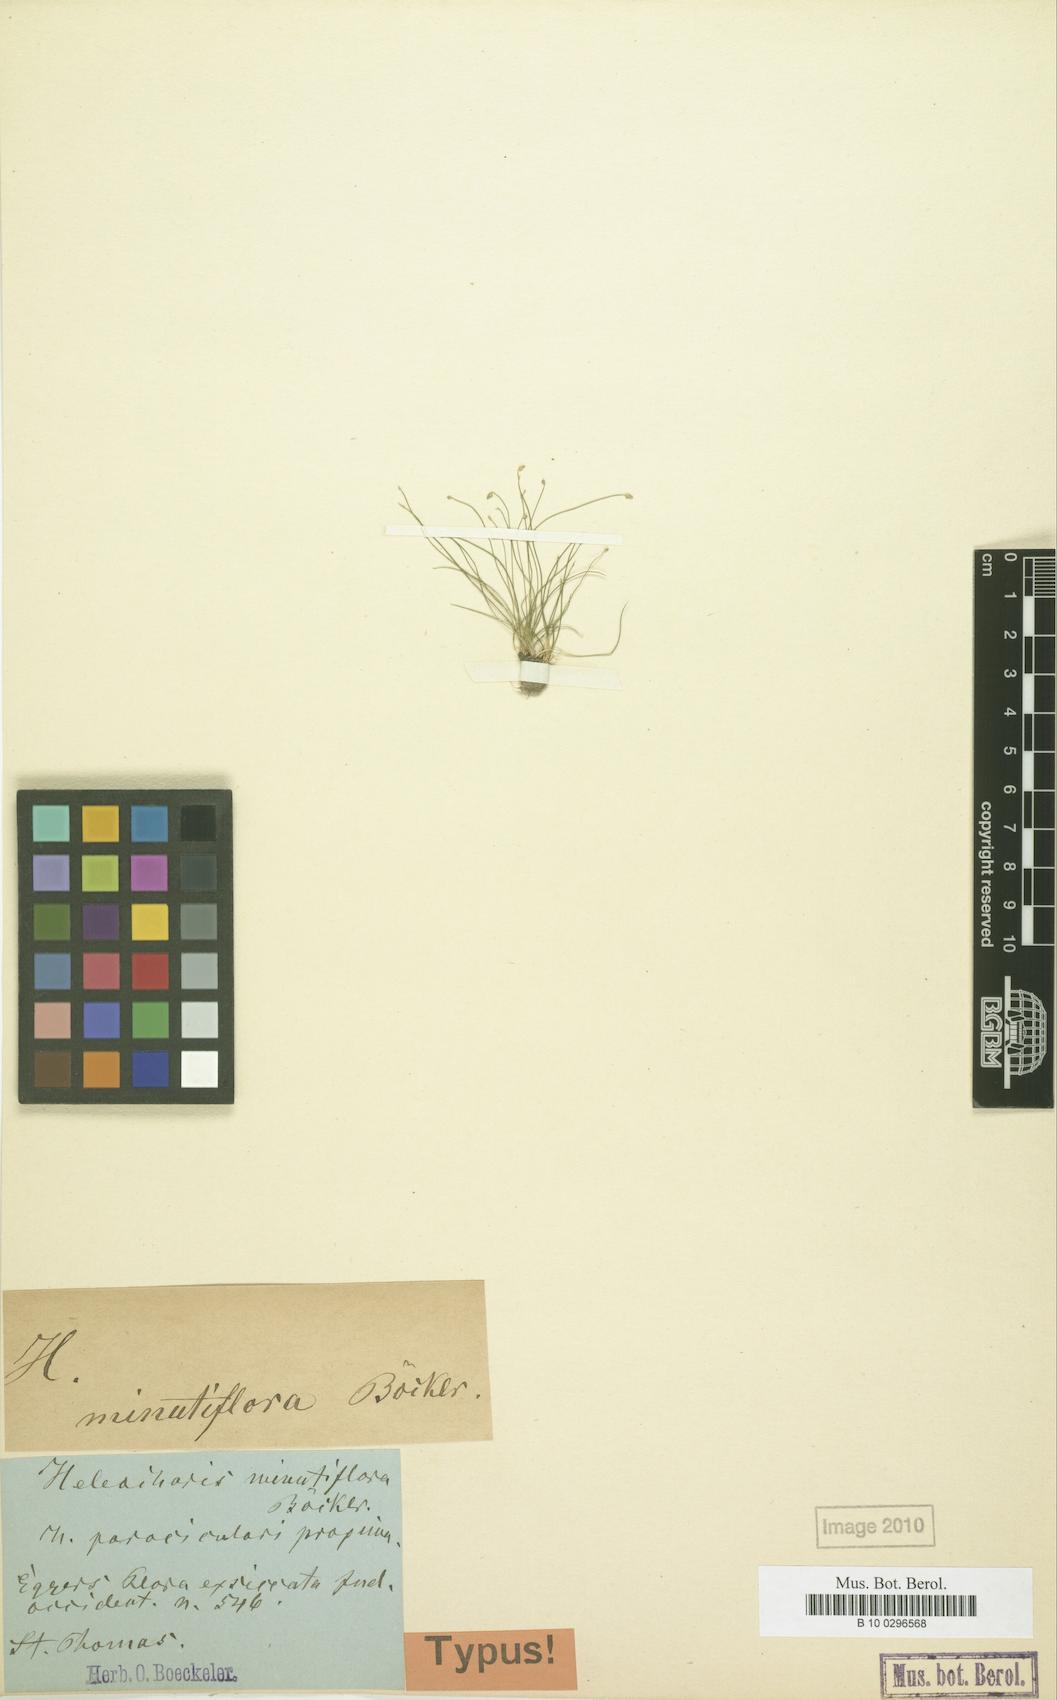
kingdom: Plantae
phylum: Tracheophyta
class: Liliopsida
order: Poales
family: Cyperaceae
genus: Eleocharis
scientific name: Eleocharis nigrescens
